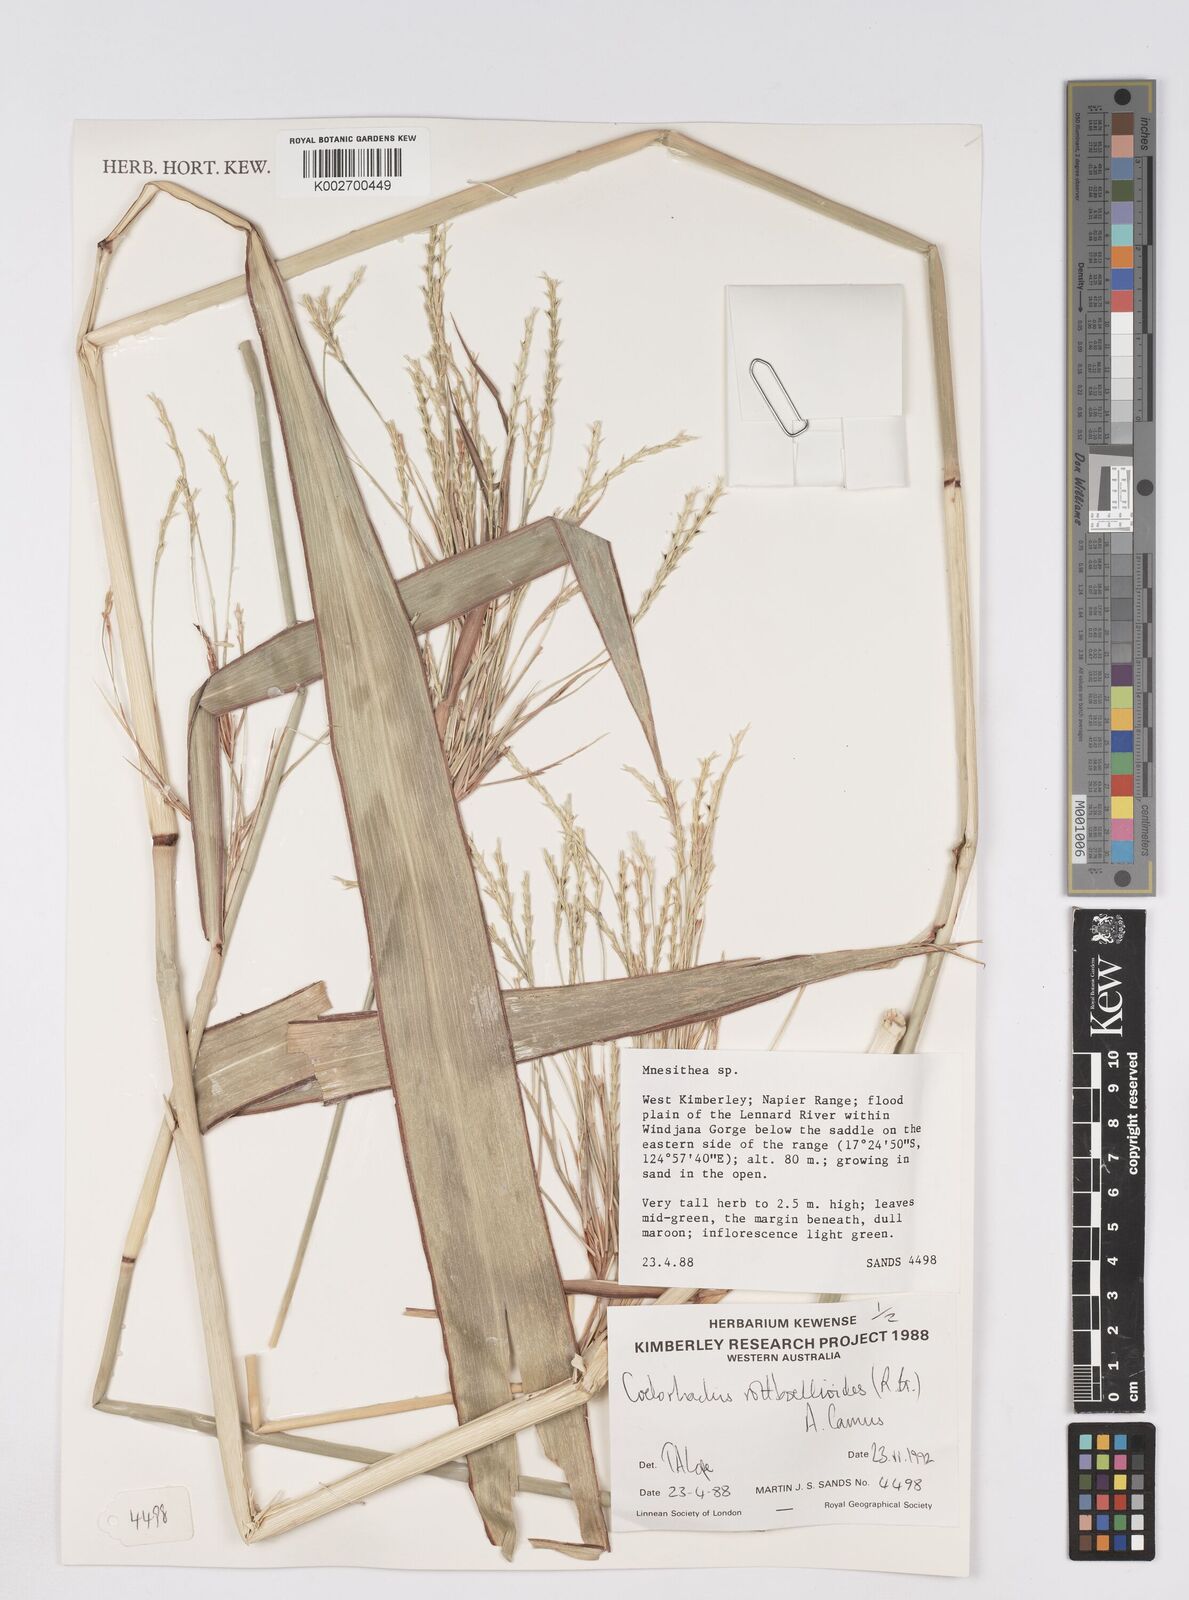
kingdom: Plantae
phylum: Tracheophyta
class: Liliopsida
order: Poales
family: Poaceae
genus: Rottboellia
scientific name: Rottboellia rottboellioides
